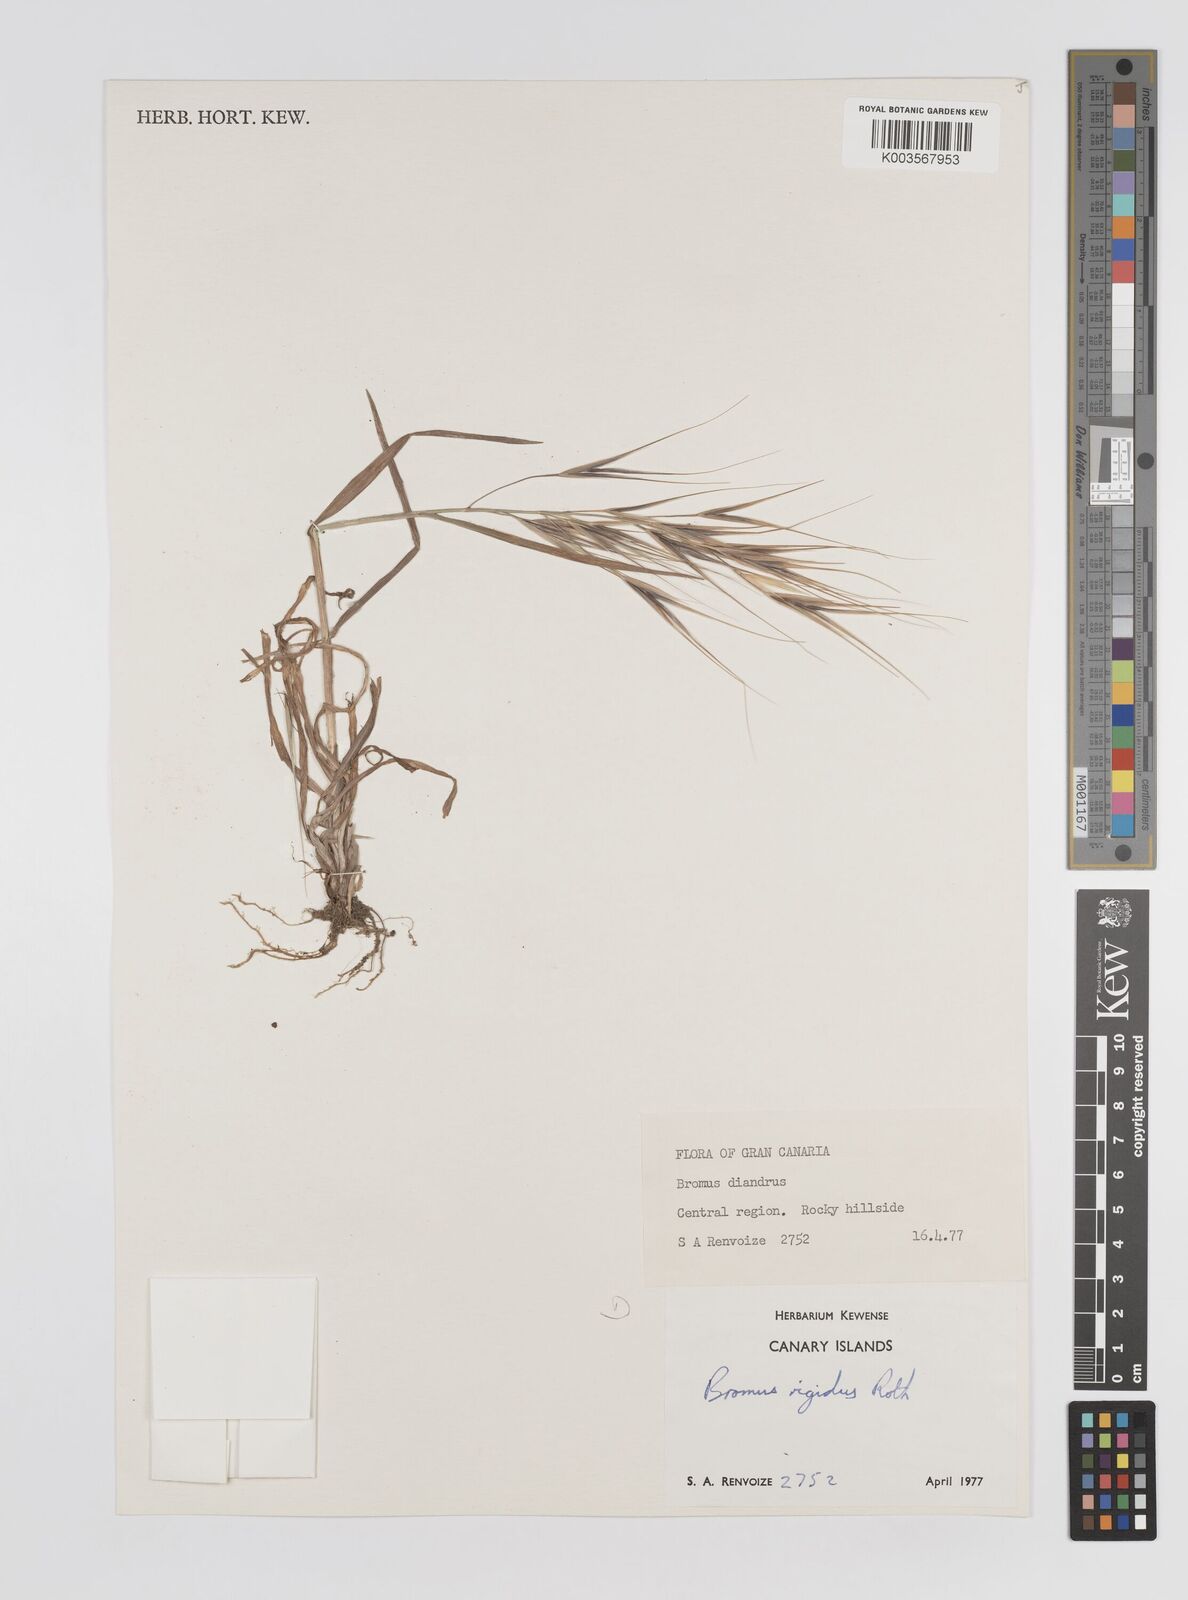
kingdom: Plantae
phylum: Tracheophyta
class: Liliopsida
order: Poales
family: Poaceae
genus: Bromus
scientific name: Bromus diandrus
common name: Ripgut brome
